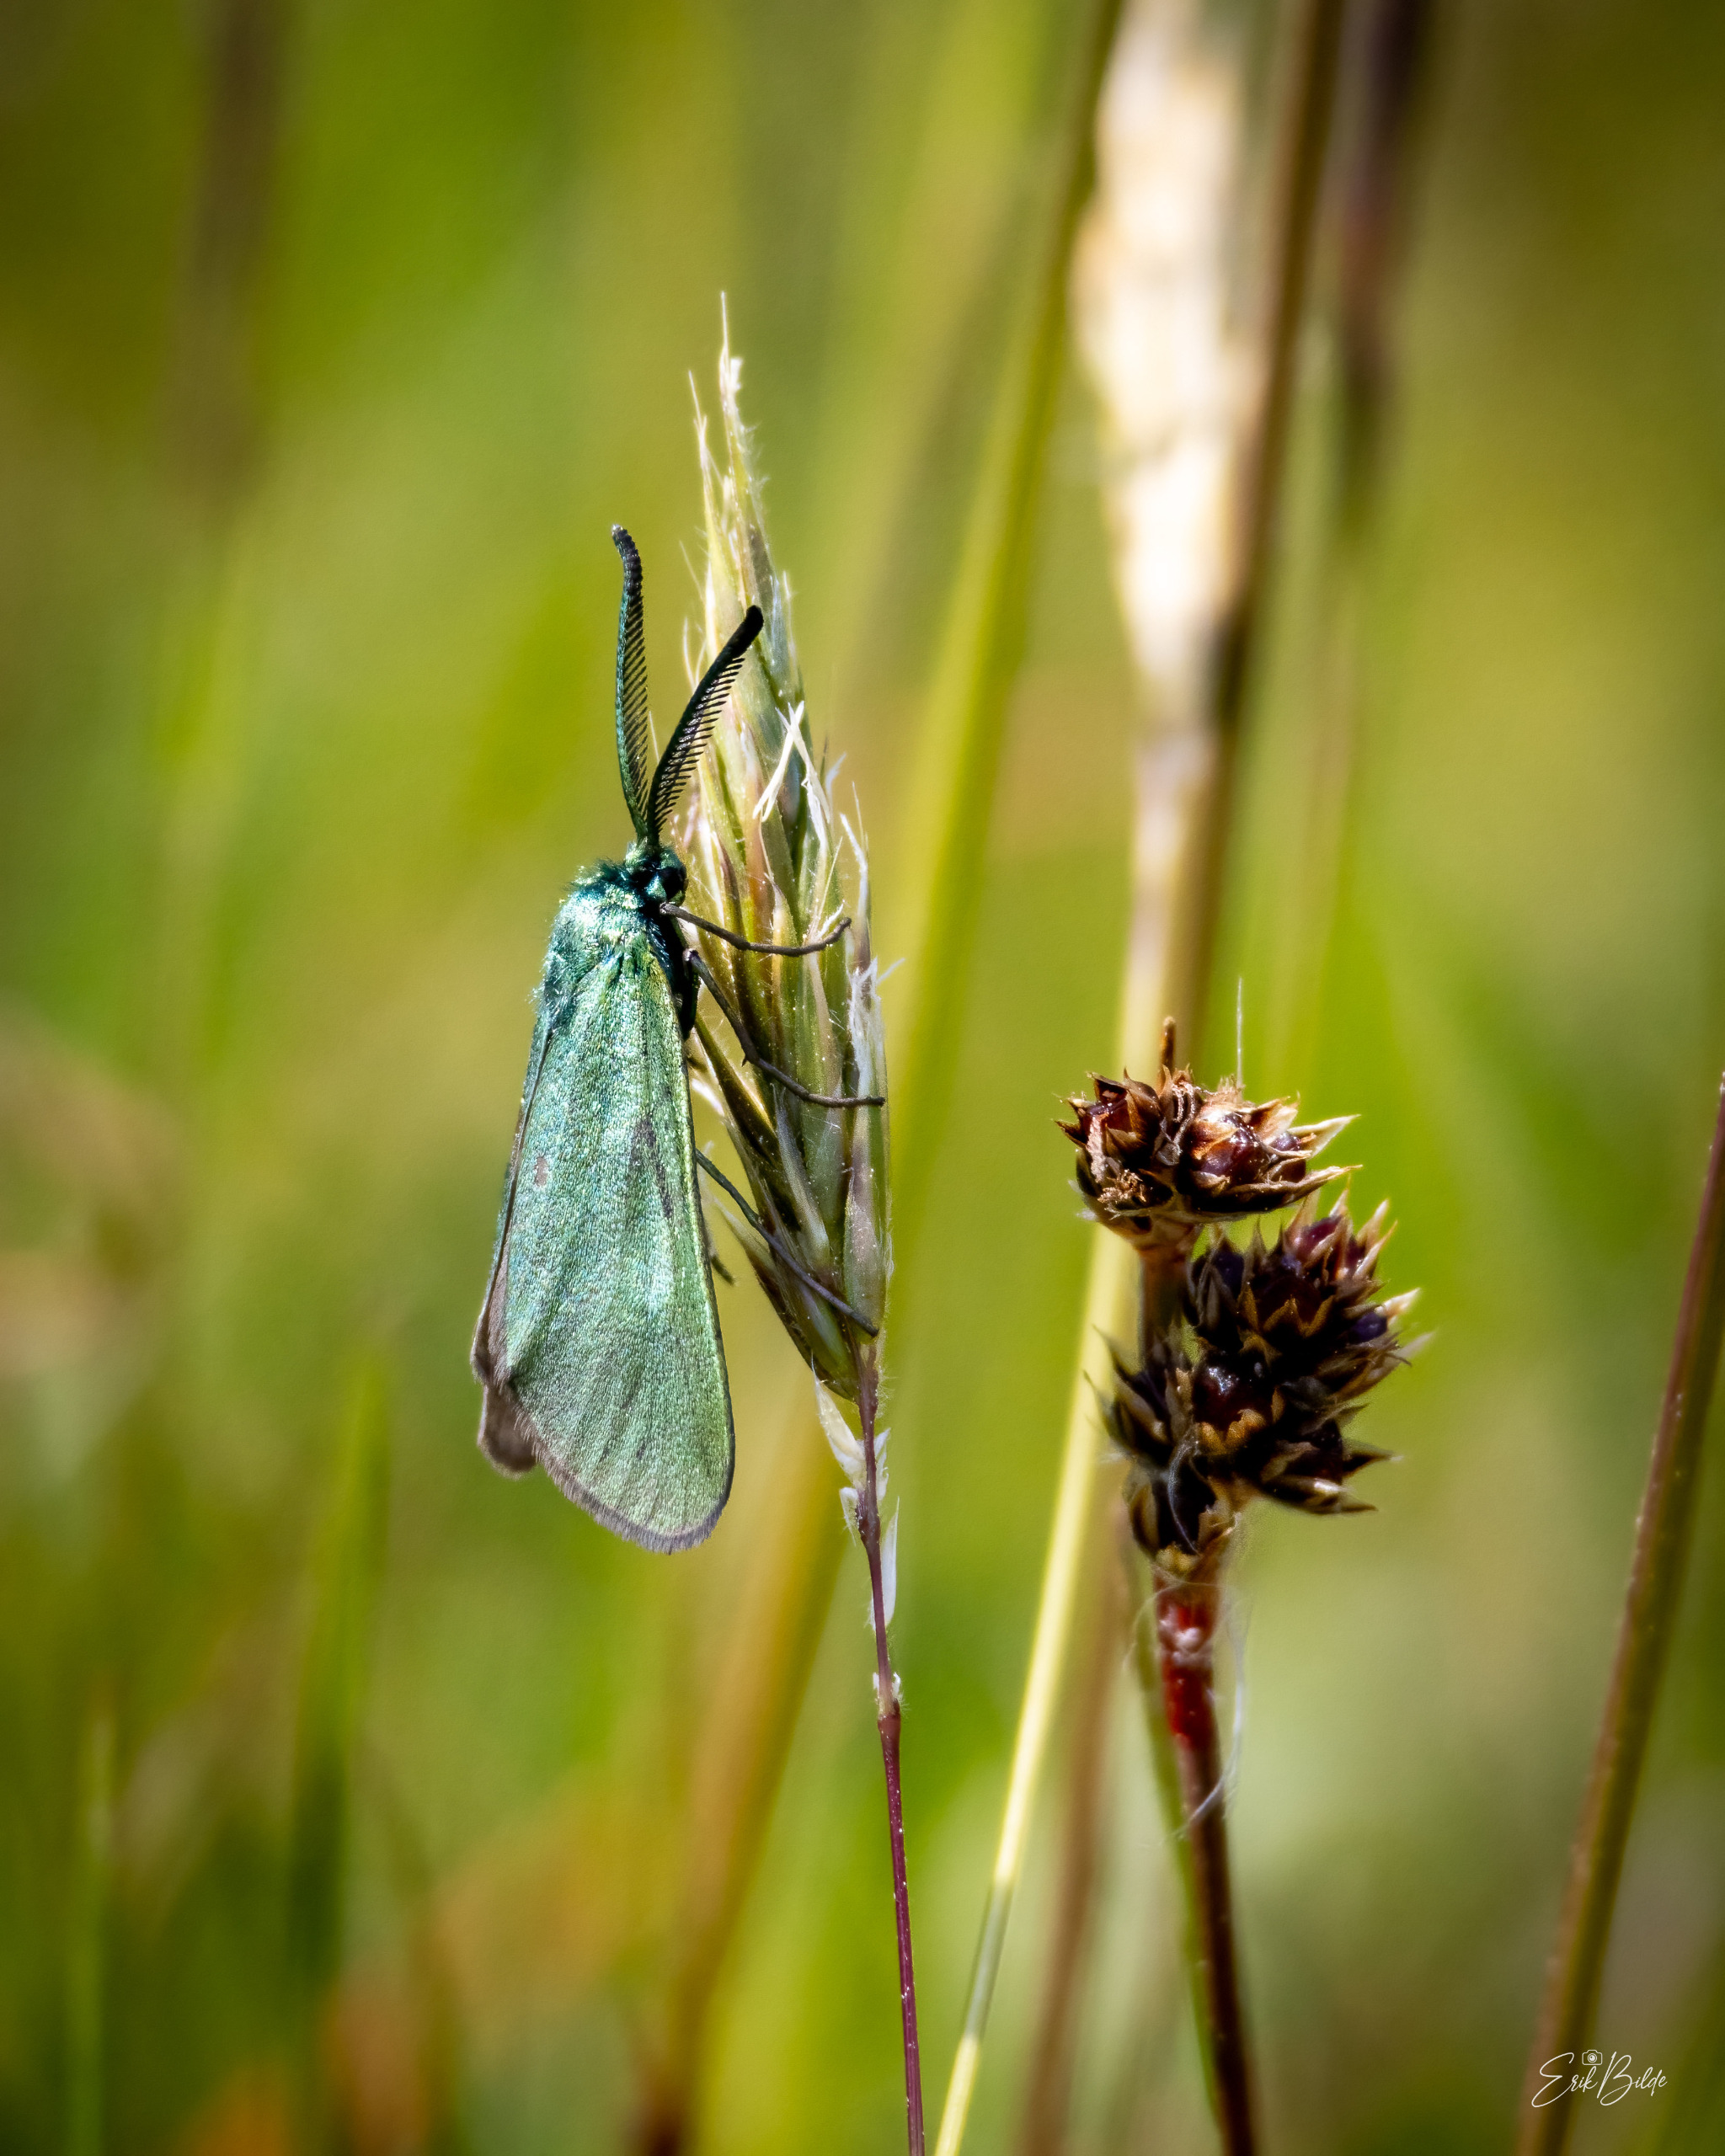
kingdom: Animalia
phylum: Arthropoda
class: Insecta
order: Lepidoptera
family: Zygaenidae
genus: Adscita
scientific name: Adscita statices
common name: Metalvinge
